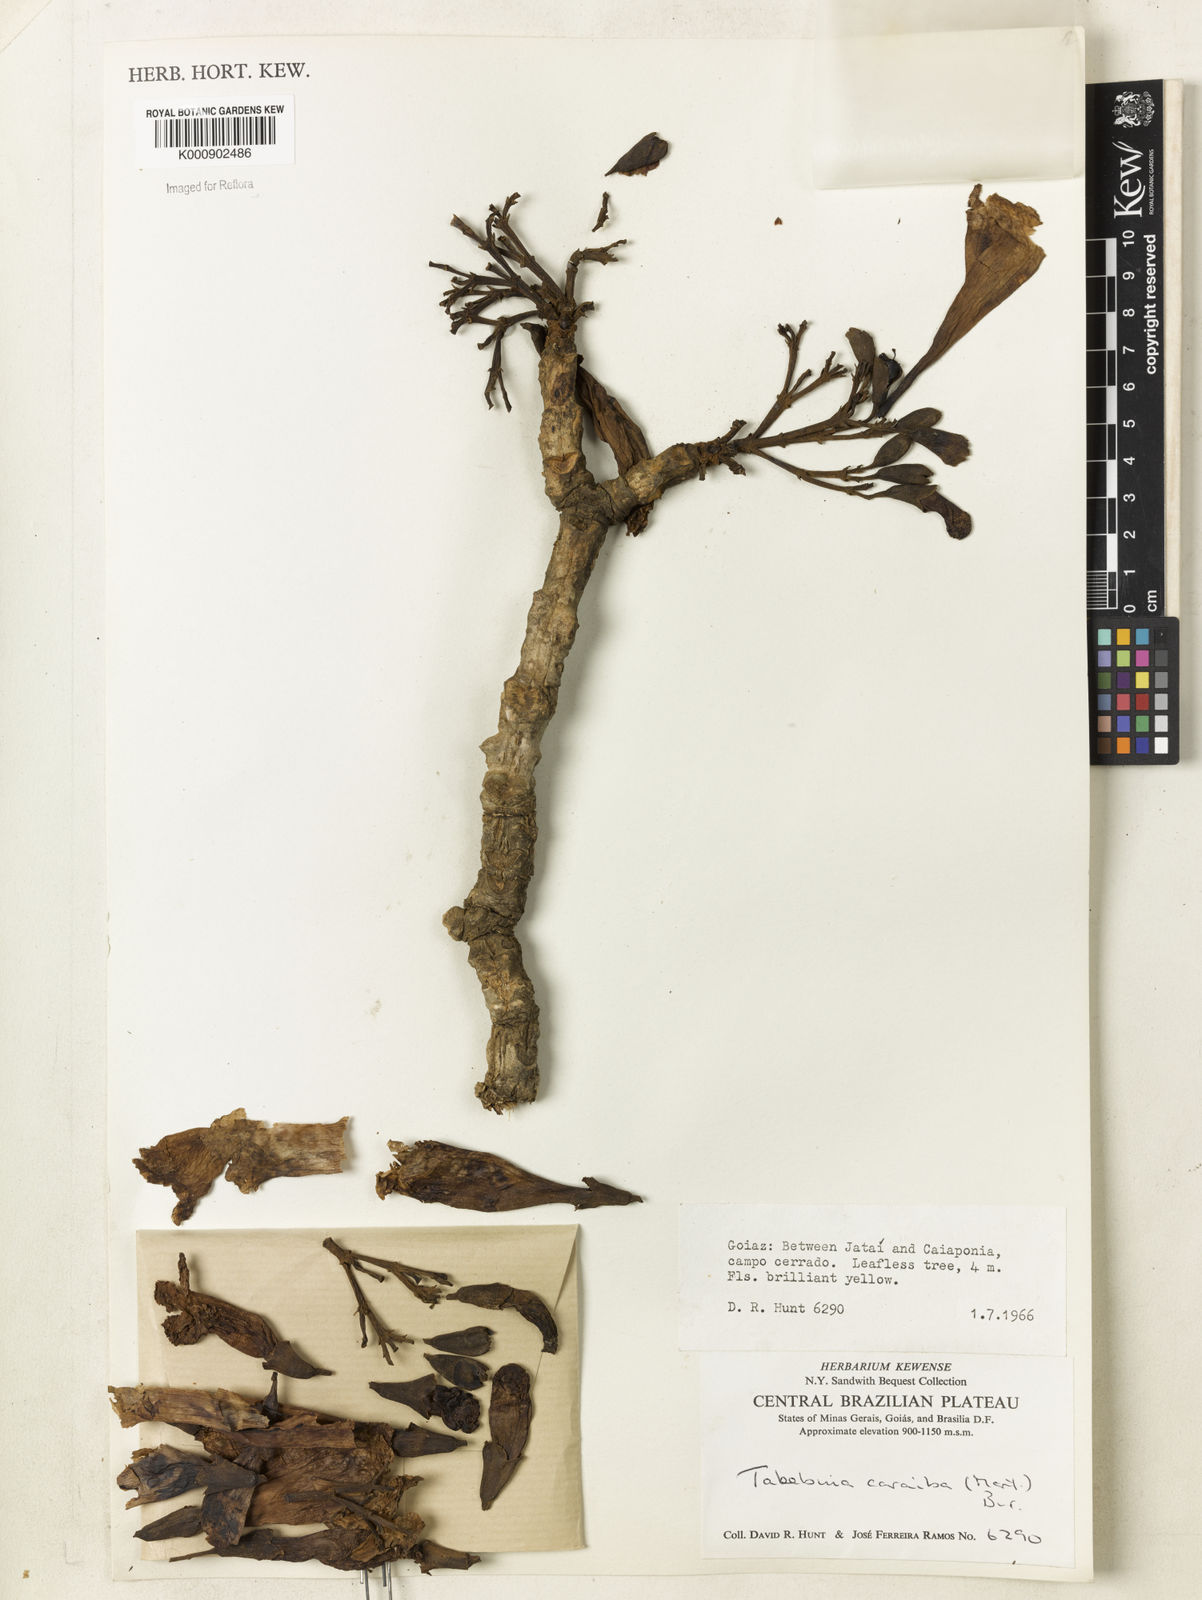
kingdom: Plantae
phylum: Tracheophyta
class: Magnoliopsida
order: Lamiales
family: Bignoniaceae
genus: Tabebuia
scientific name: Tabebuia aurea
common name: Caribbean trumpet-tree
